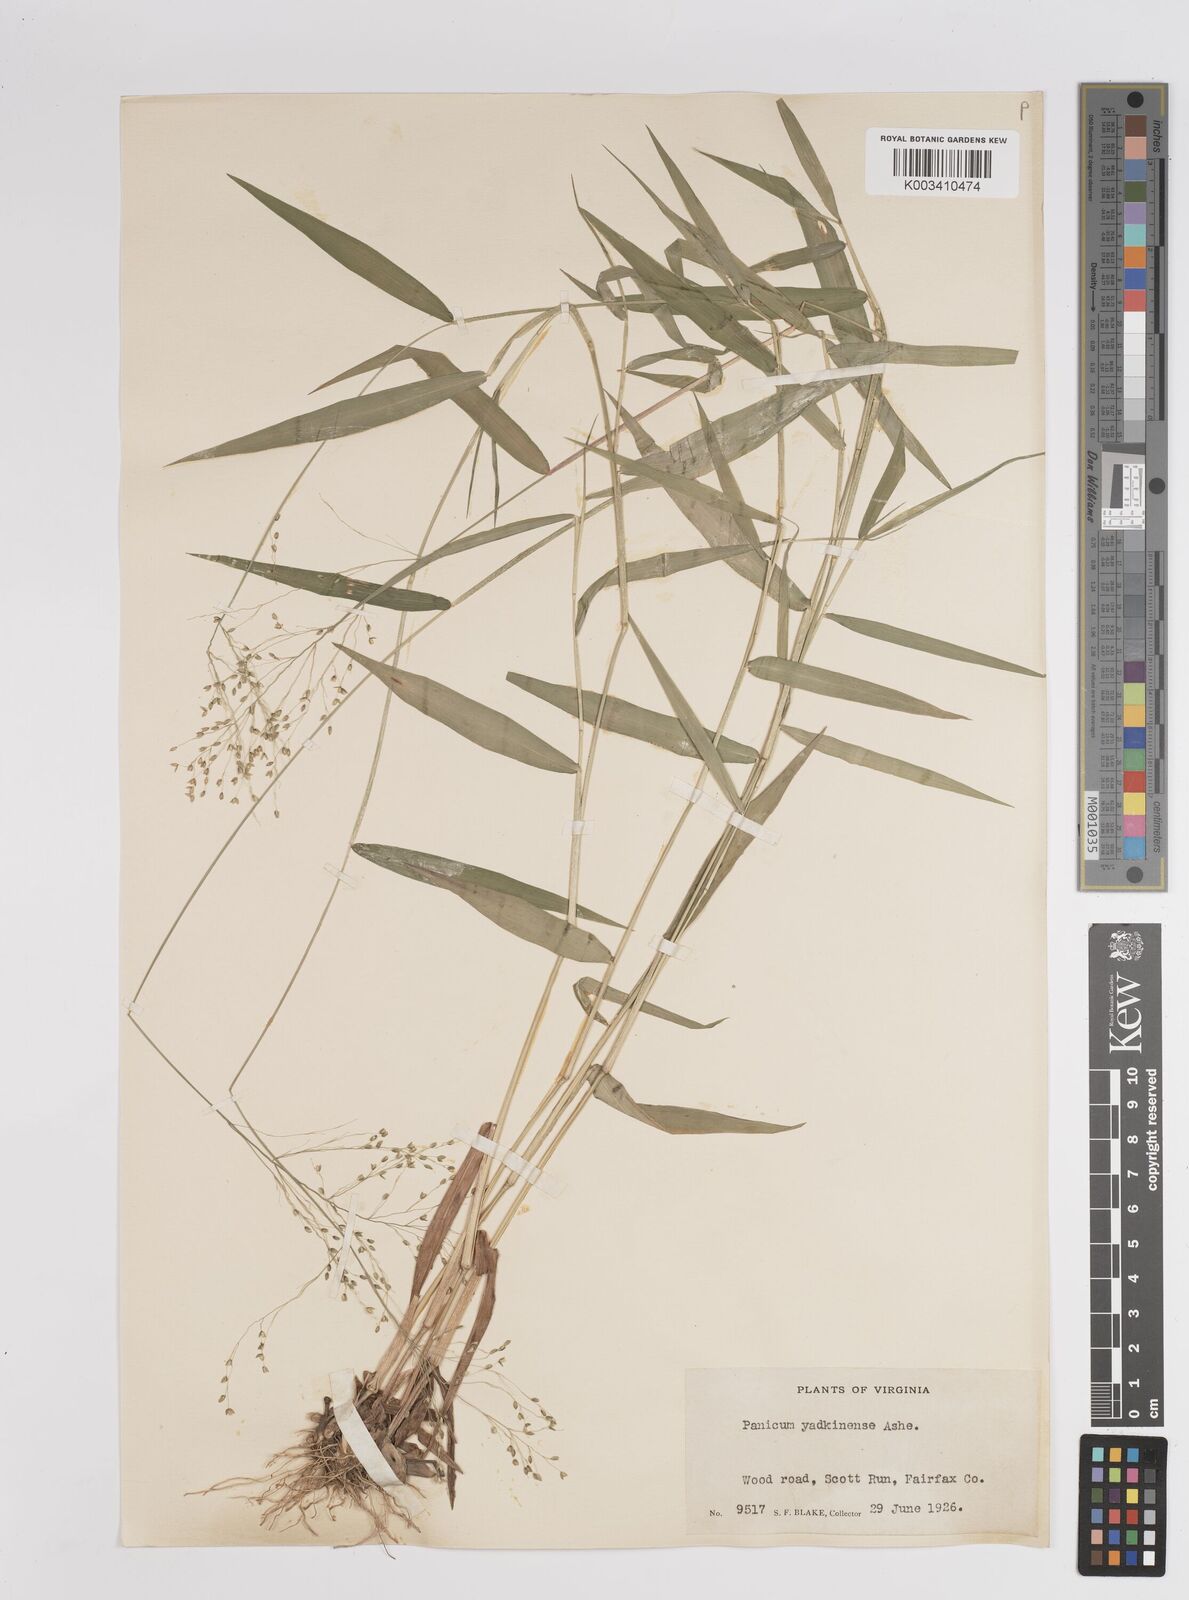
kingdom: Plantae
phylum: Tracheophyta
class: Liliopsida
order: Poales
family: Poaceae
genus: Dichanthelium
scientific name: Dichanthelium dichotomum
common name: Cypress panicgrass
